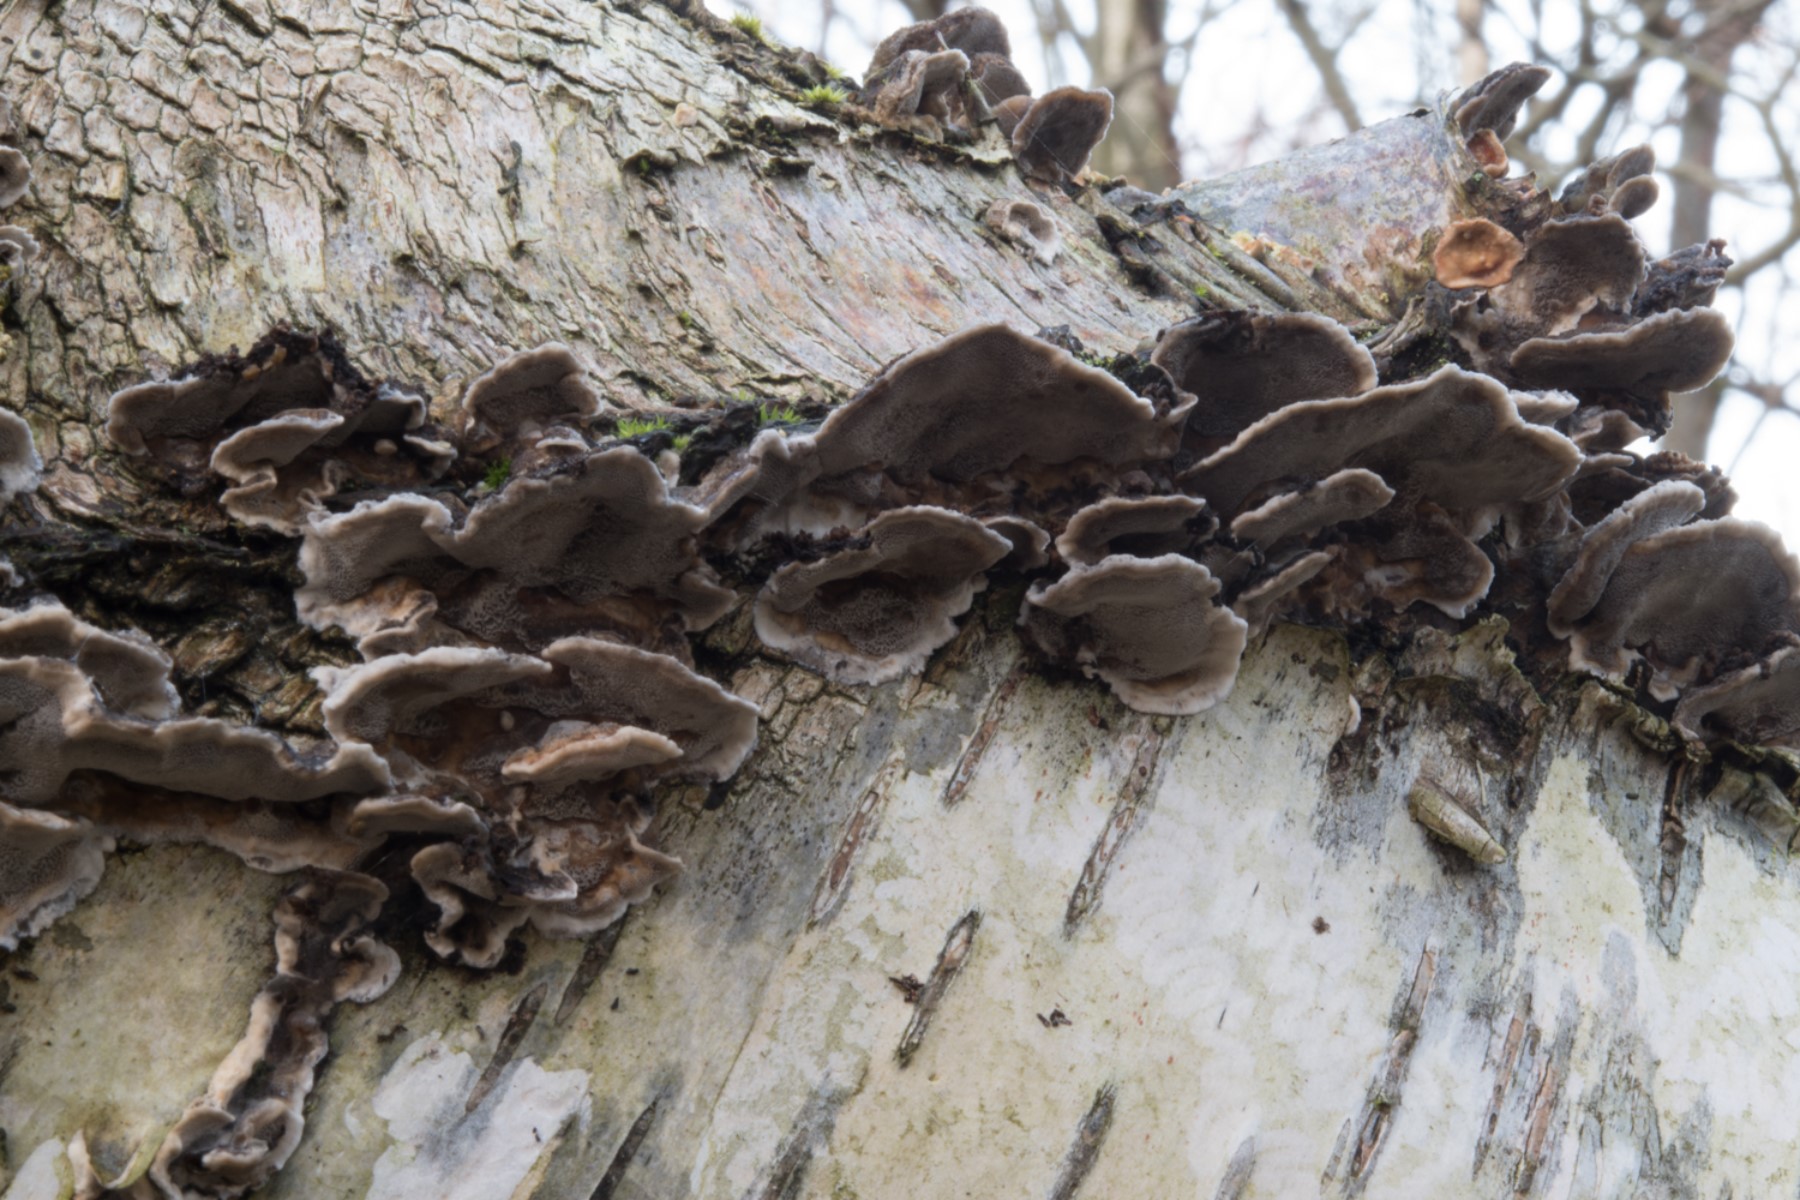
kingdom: Fungi
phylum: Basidiomycota
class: Agaricomycetes
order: Polyporales
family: Phanerochaetaceae
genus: Bjerkandera
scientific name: Bjerkandera adusta
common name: sveden sodporesvamp
